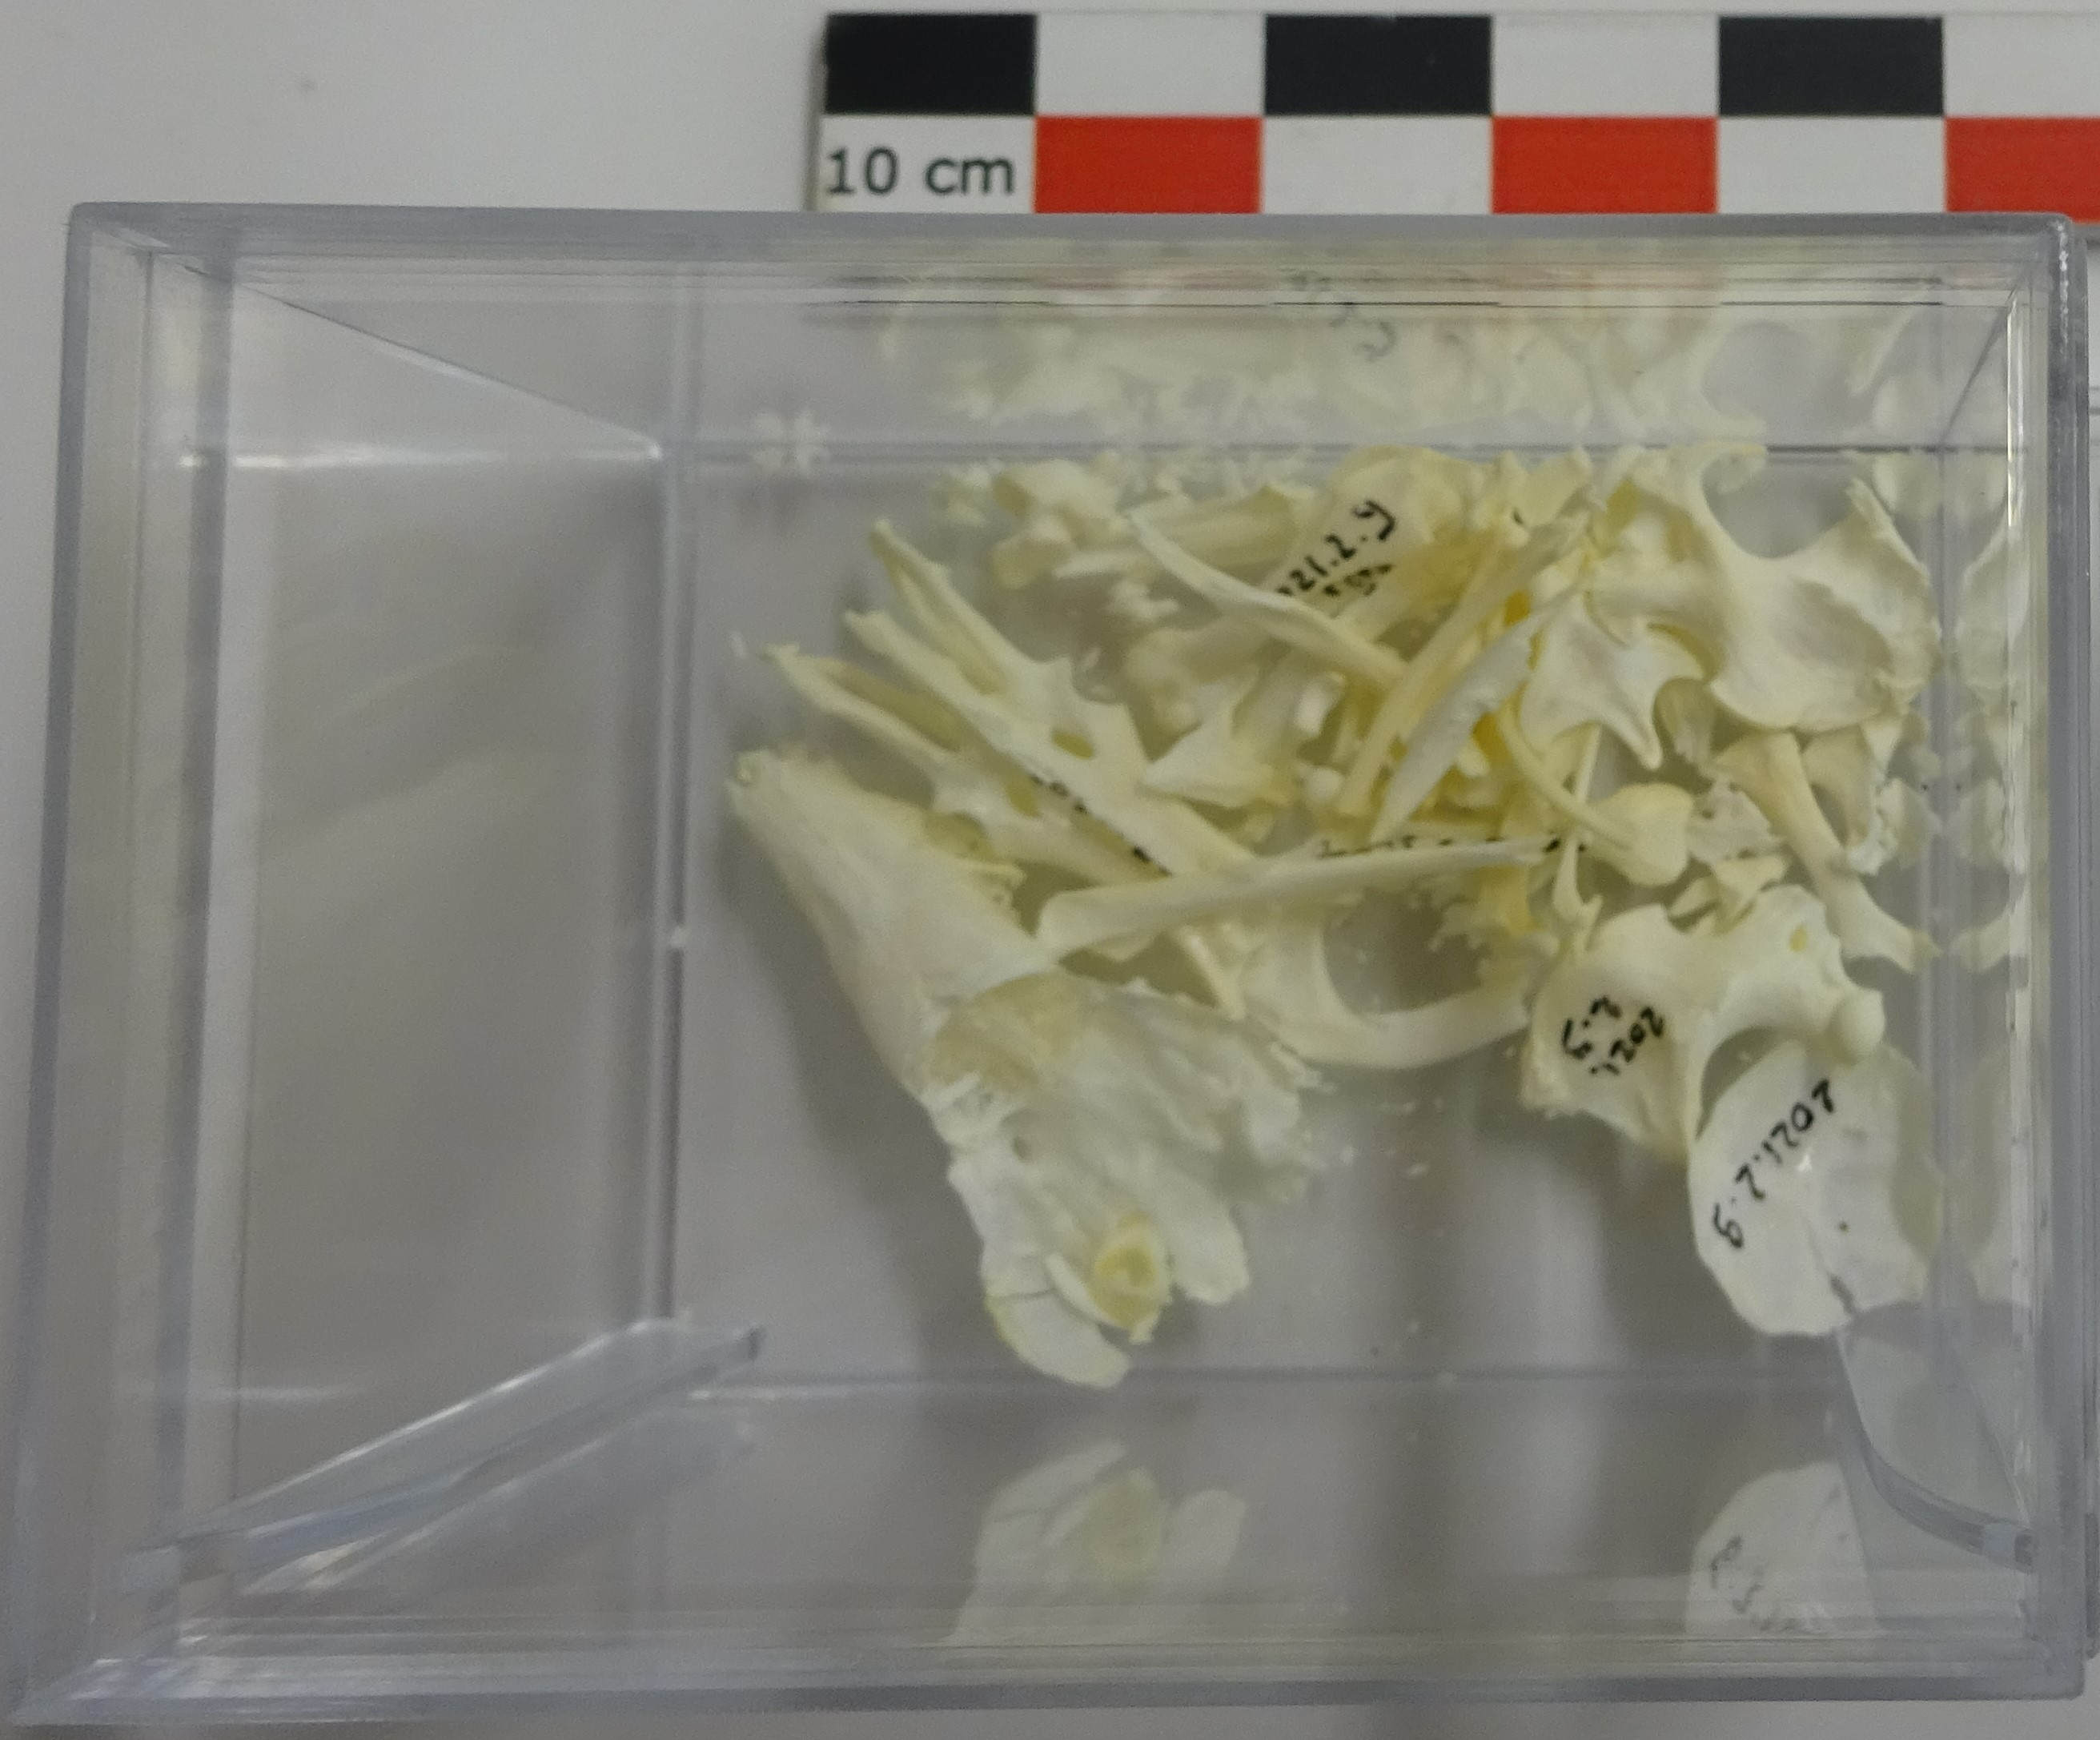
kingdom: Animalia
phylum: Chordata
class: Mammalia
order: Soricomorpha
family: Talpidae
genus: Talpa
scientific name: Talpa europaea
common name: European mole
